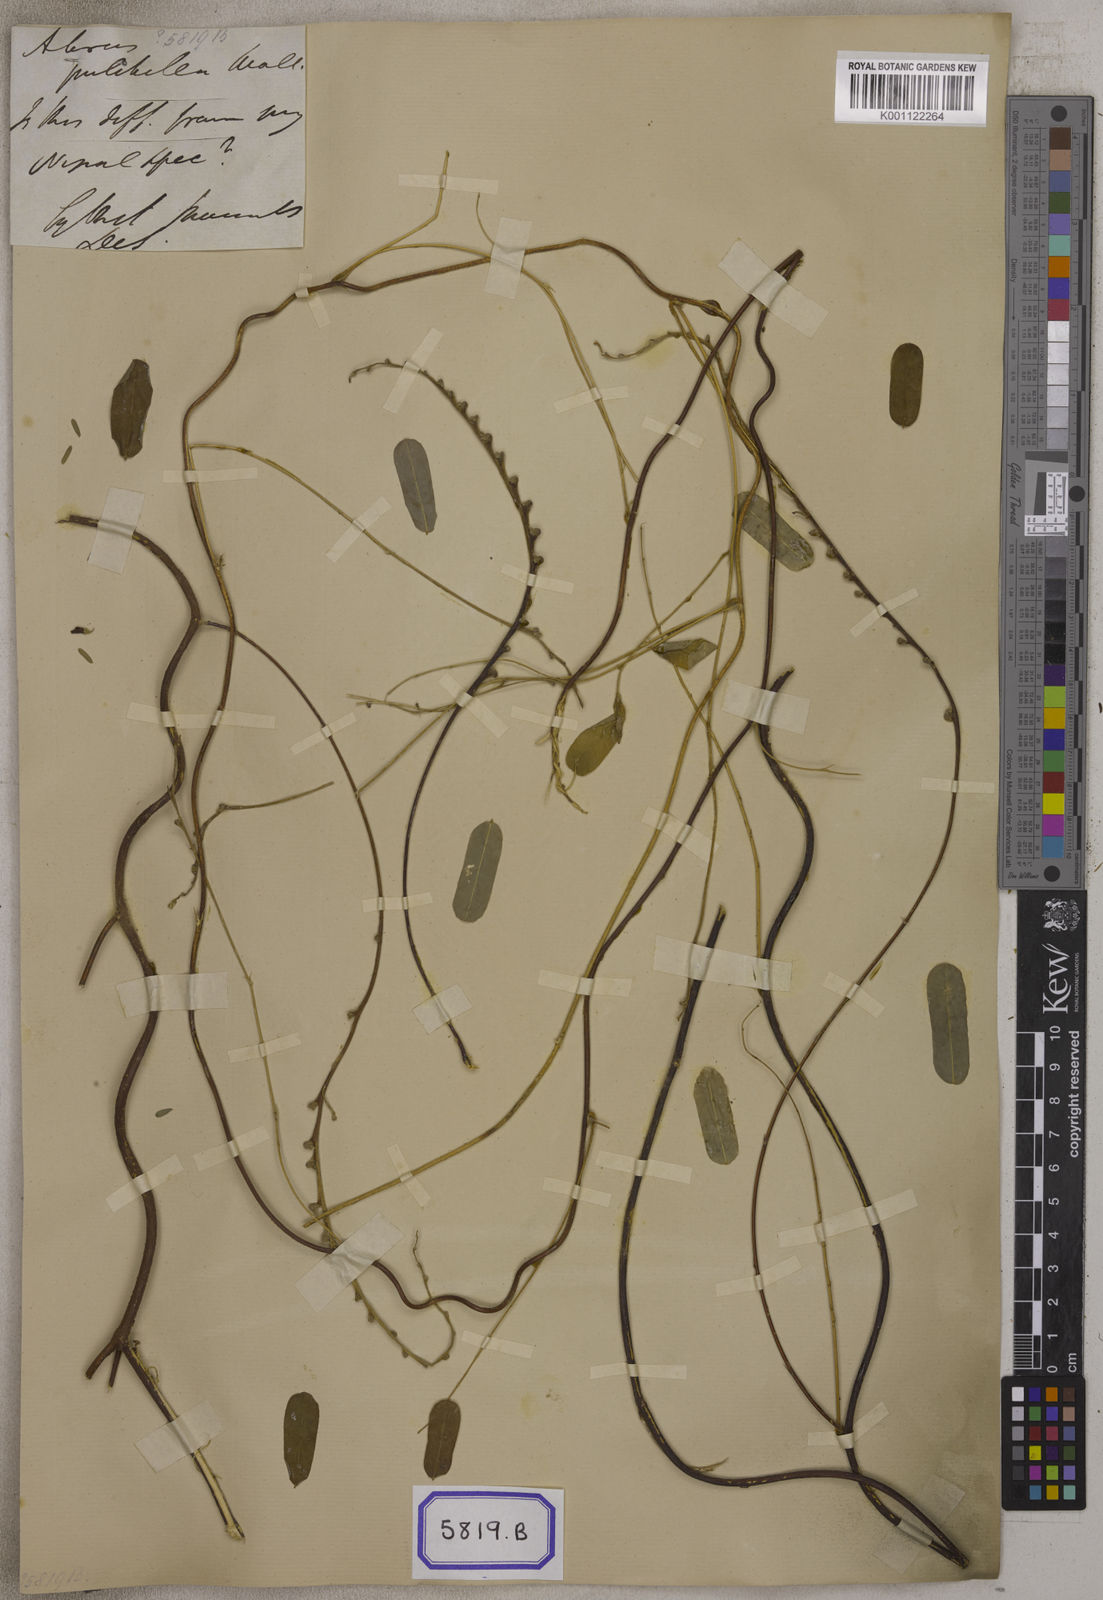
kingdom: Plantae
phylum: Tracheophyta
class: Magnoliopsida
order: Fabales
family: Fabaceae
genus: Abrus
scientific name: Abrus
